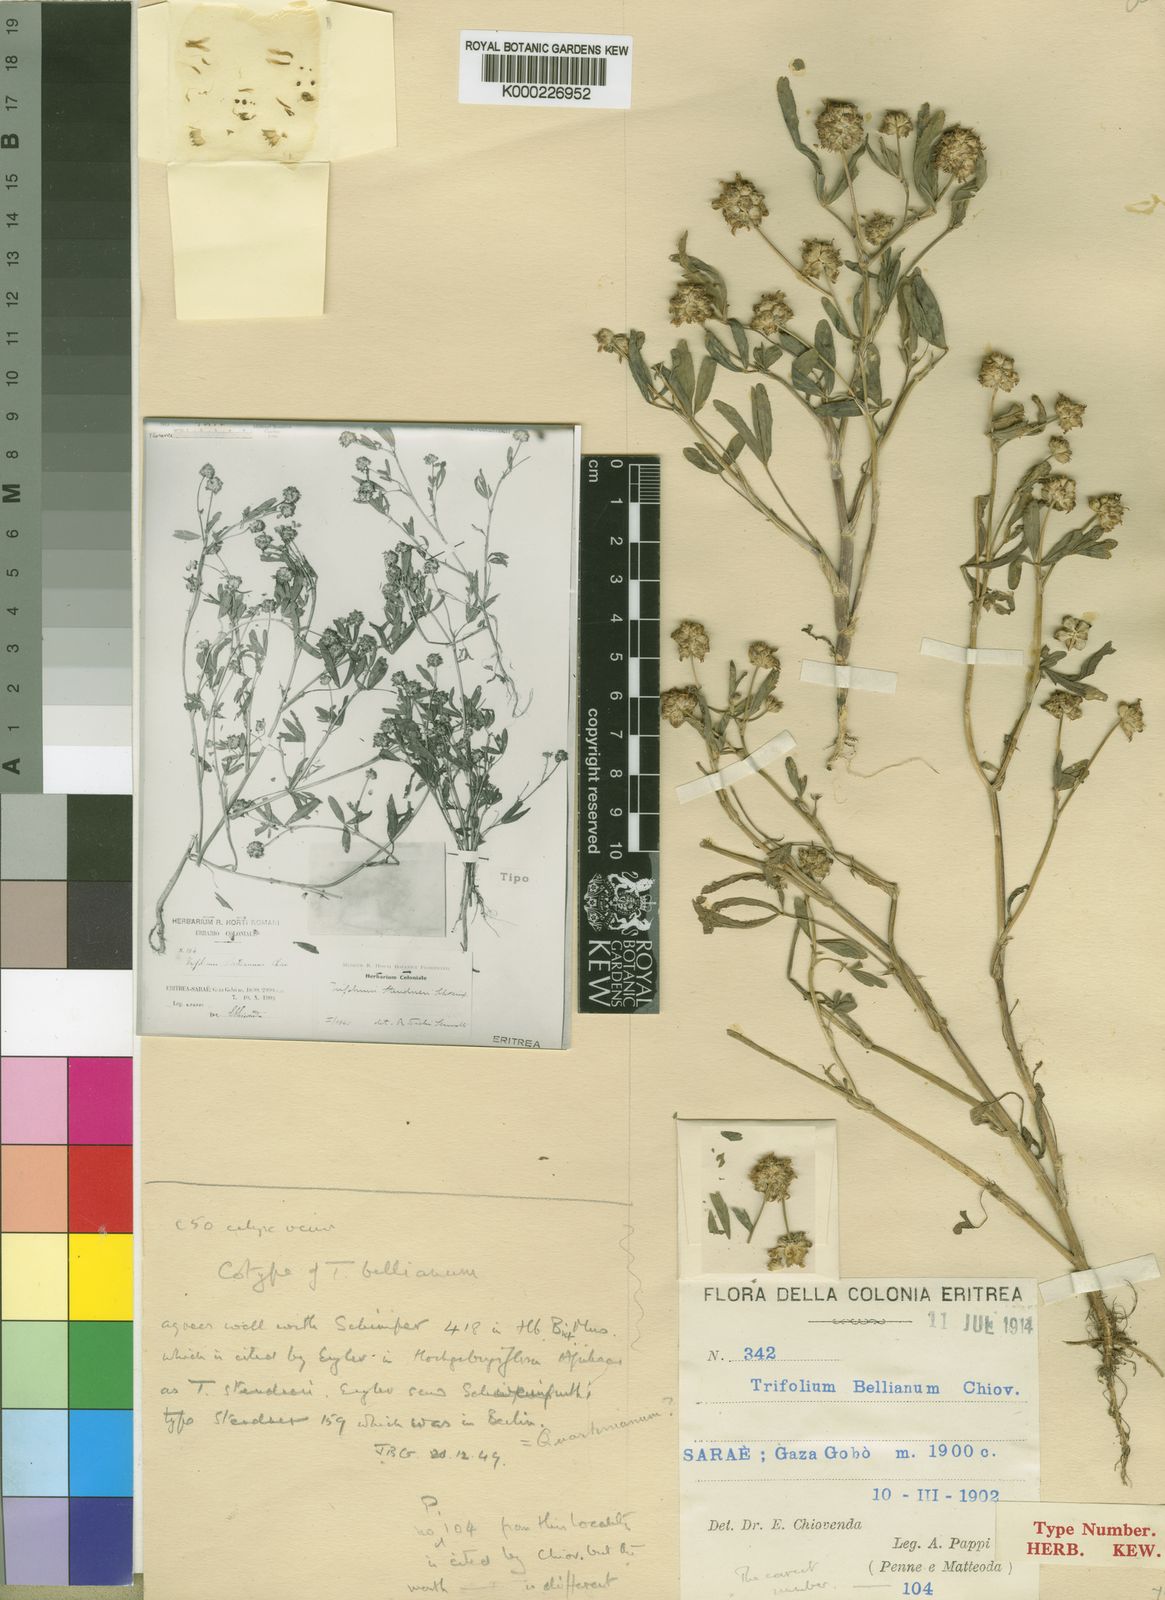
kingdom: Plantae
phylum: Tracheophyta
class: Magnoliopsida
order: Fabales
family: Fabaceae
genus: Trifolium
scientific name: Trifolium steudneri
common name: Steudner's clover
